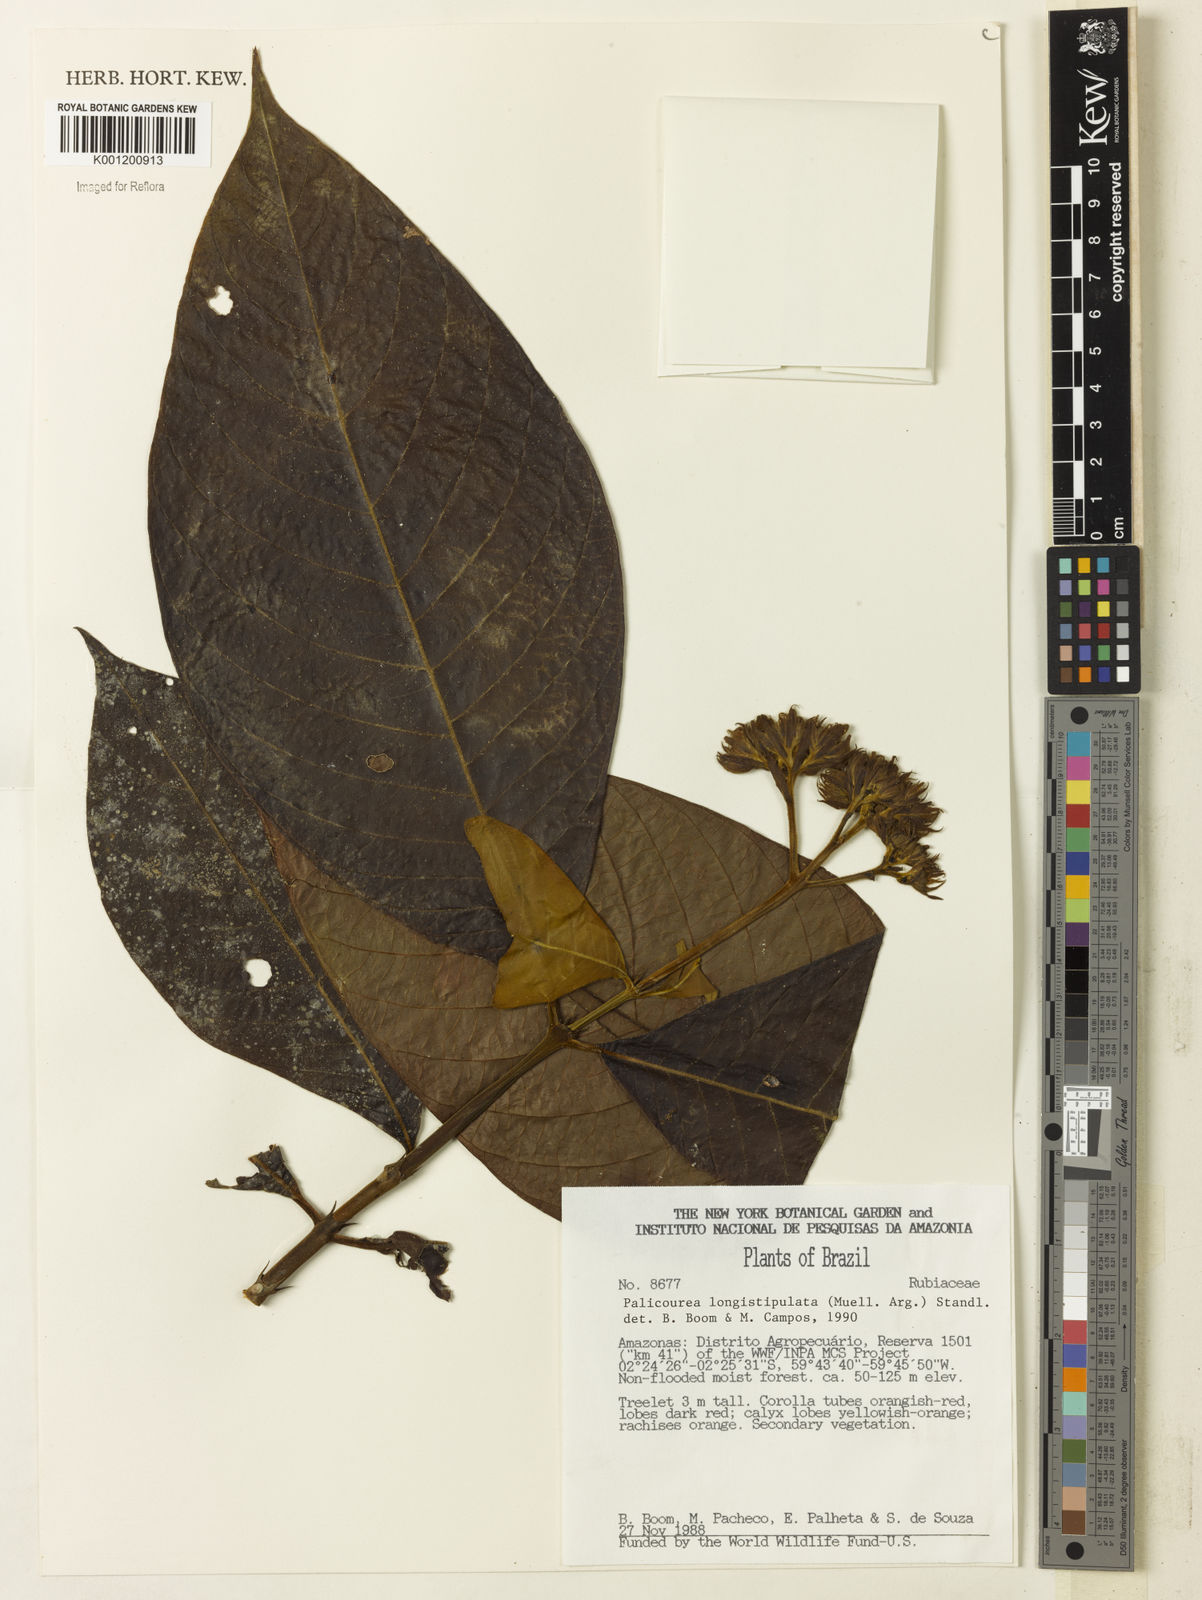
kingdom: Plantae
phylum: Tracheophyta
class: Magnoliopsida
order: Gentianales
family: Rubiaceae
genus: Palicourea
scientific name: Palicourea longistipulata
